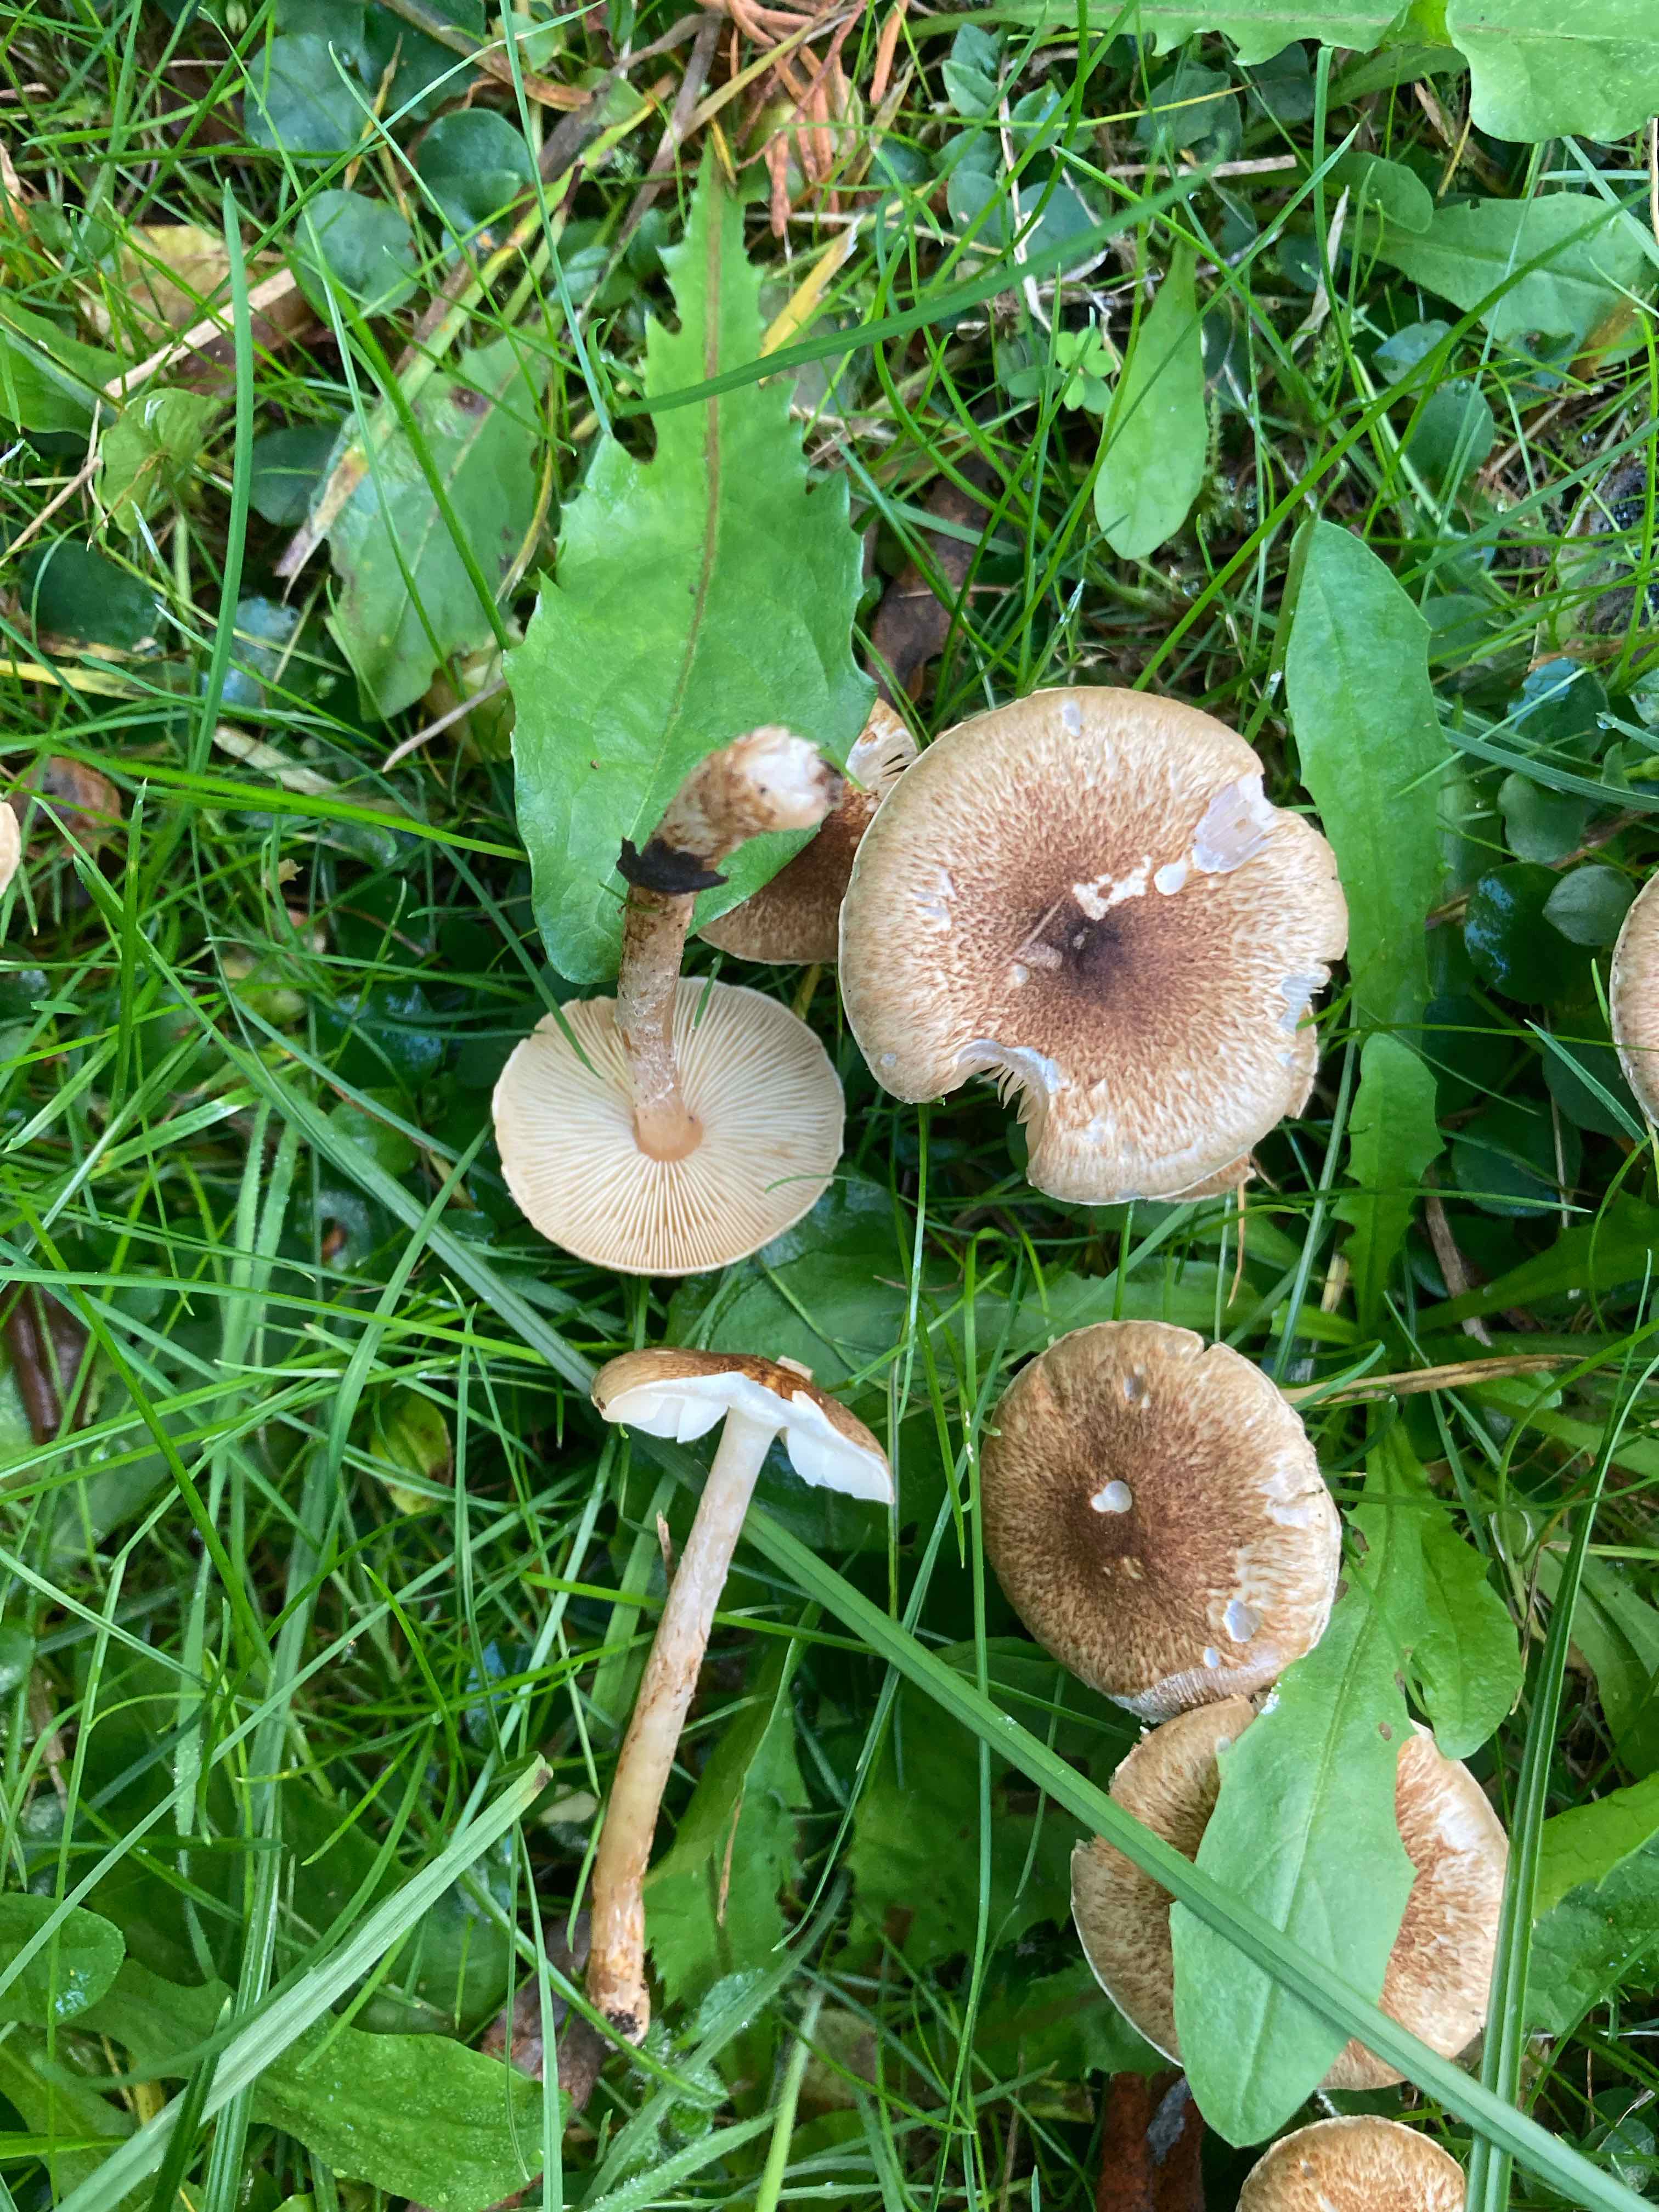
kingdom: Fungi
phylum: Basidiomycota
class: Agaricomycetes
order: Agaricales
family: Agaricaceae
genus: Leucocoprinus
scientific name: Leucocoprinus straminellus
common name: rustbrun parasolhat
